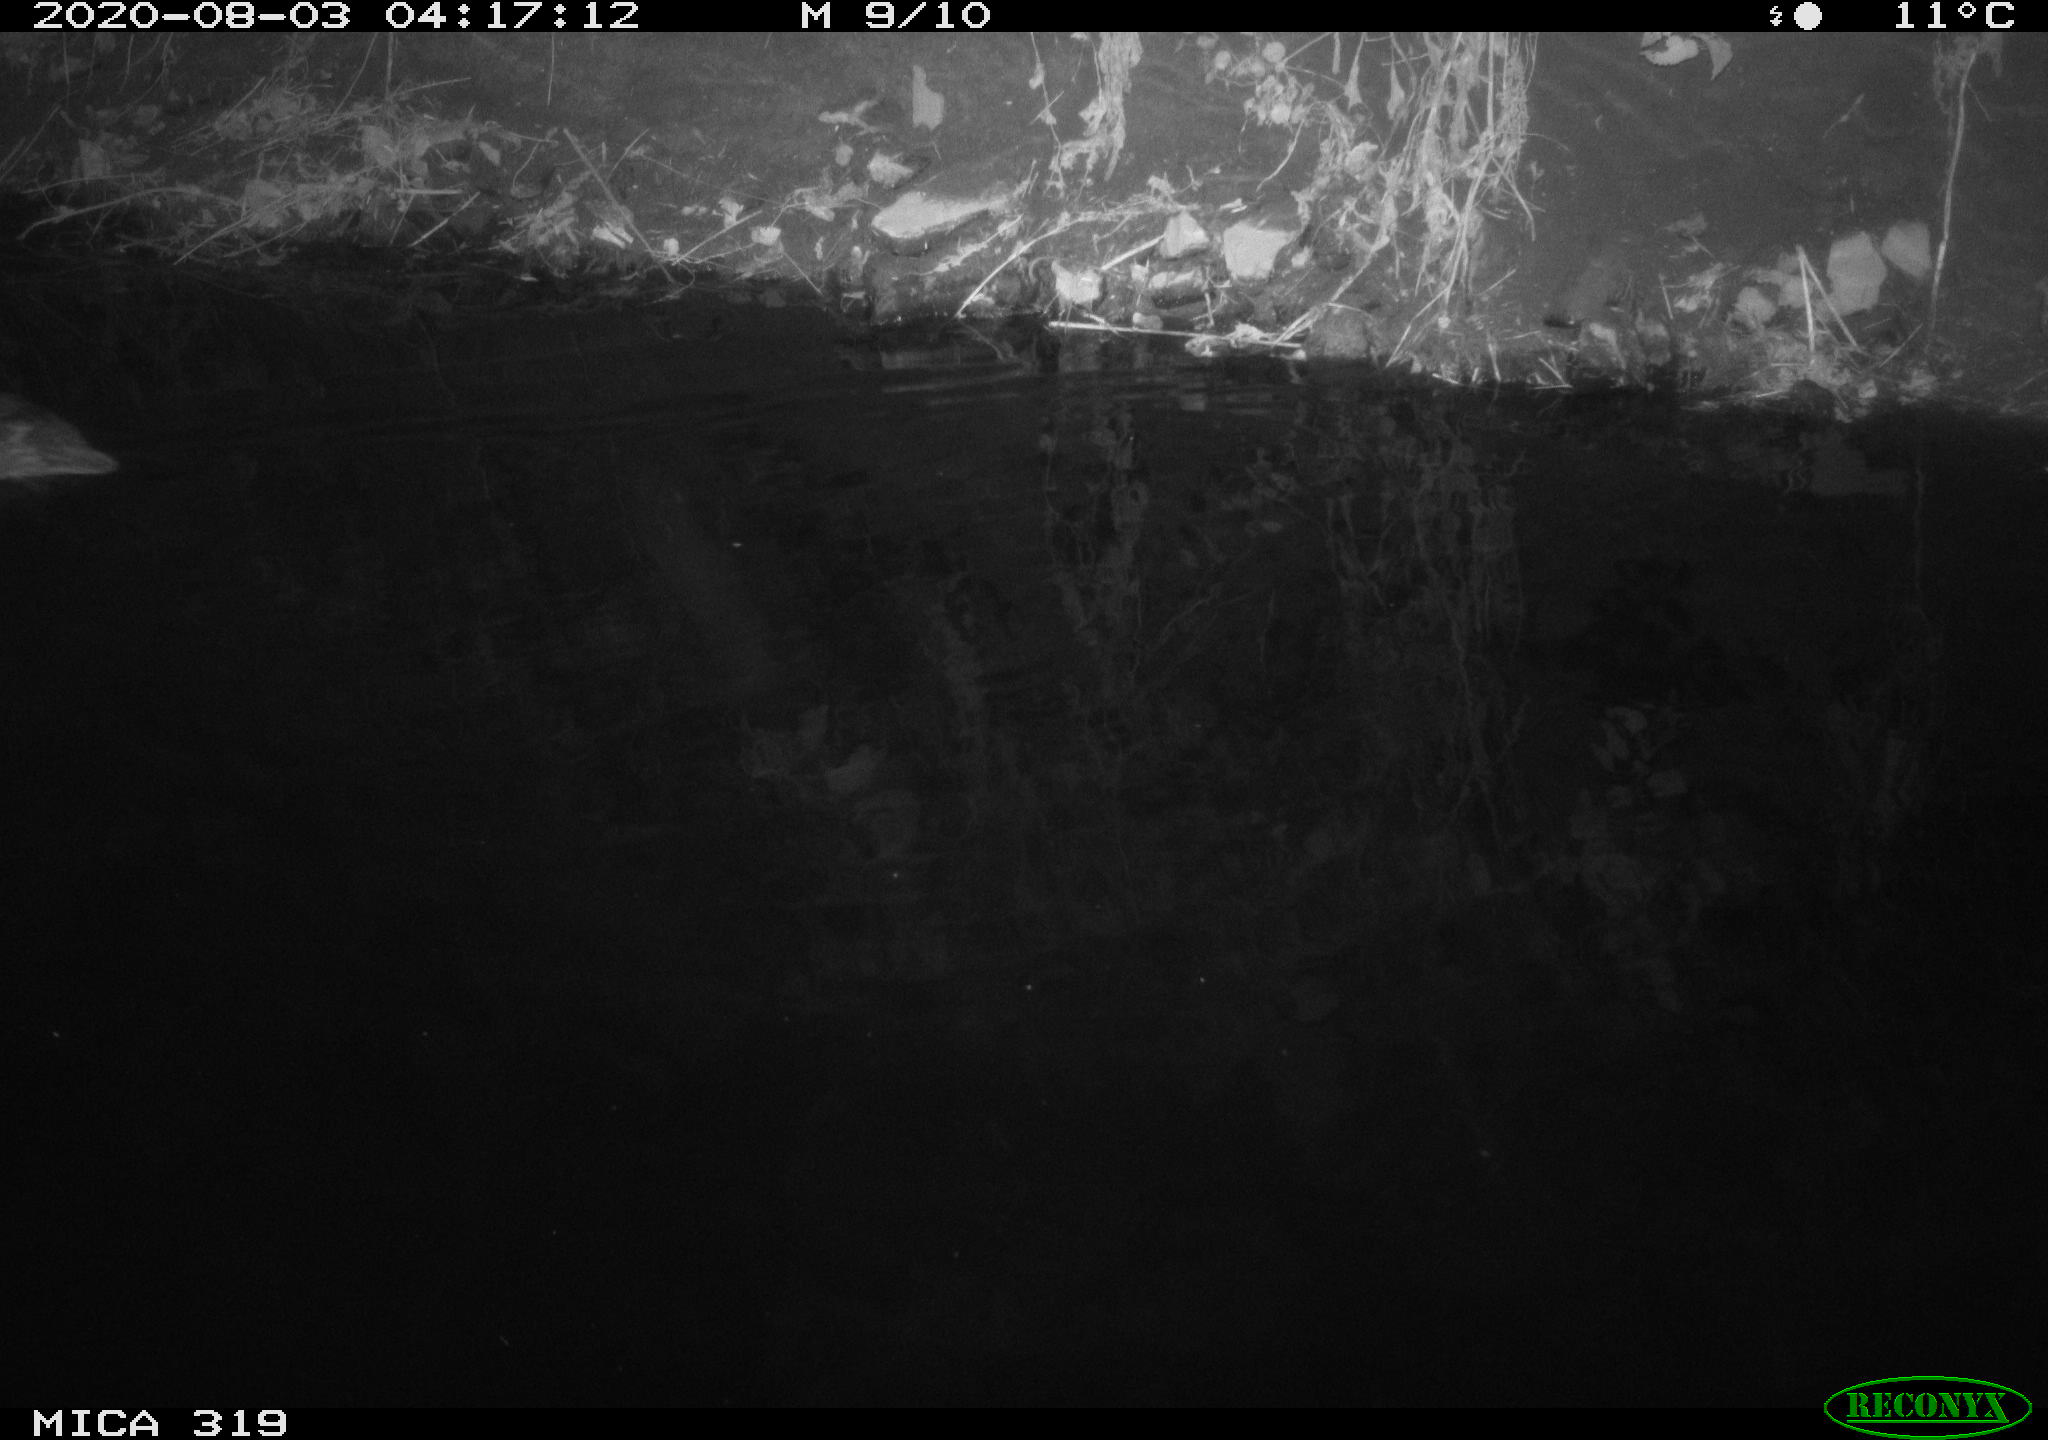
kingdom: Animalia
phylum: Chordata
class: Aves
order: Anseriformes
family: Anatidae
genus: Anas
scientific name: Anas platyrhynchos
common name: Mallard
